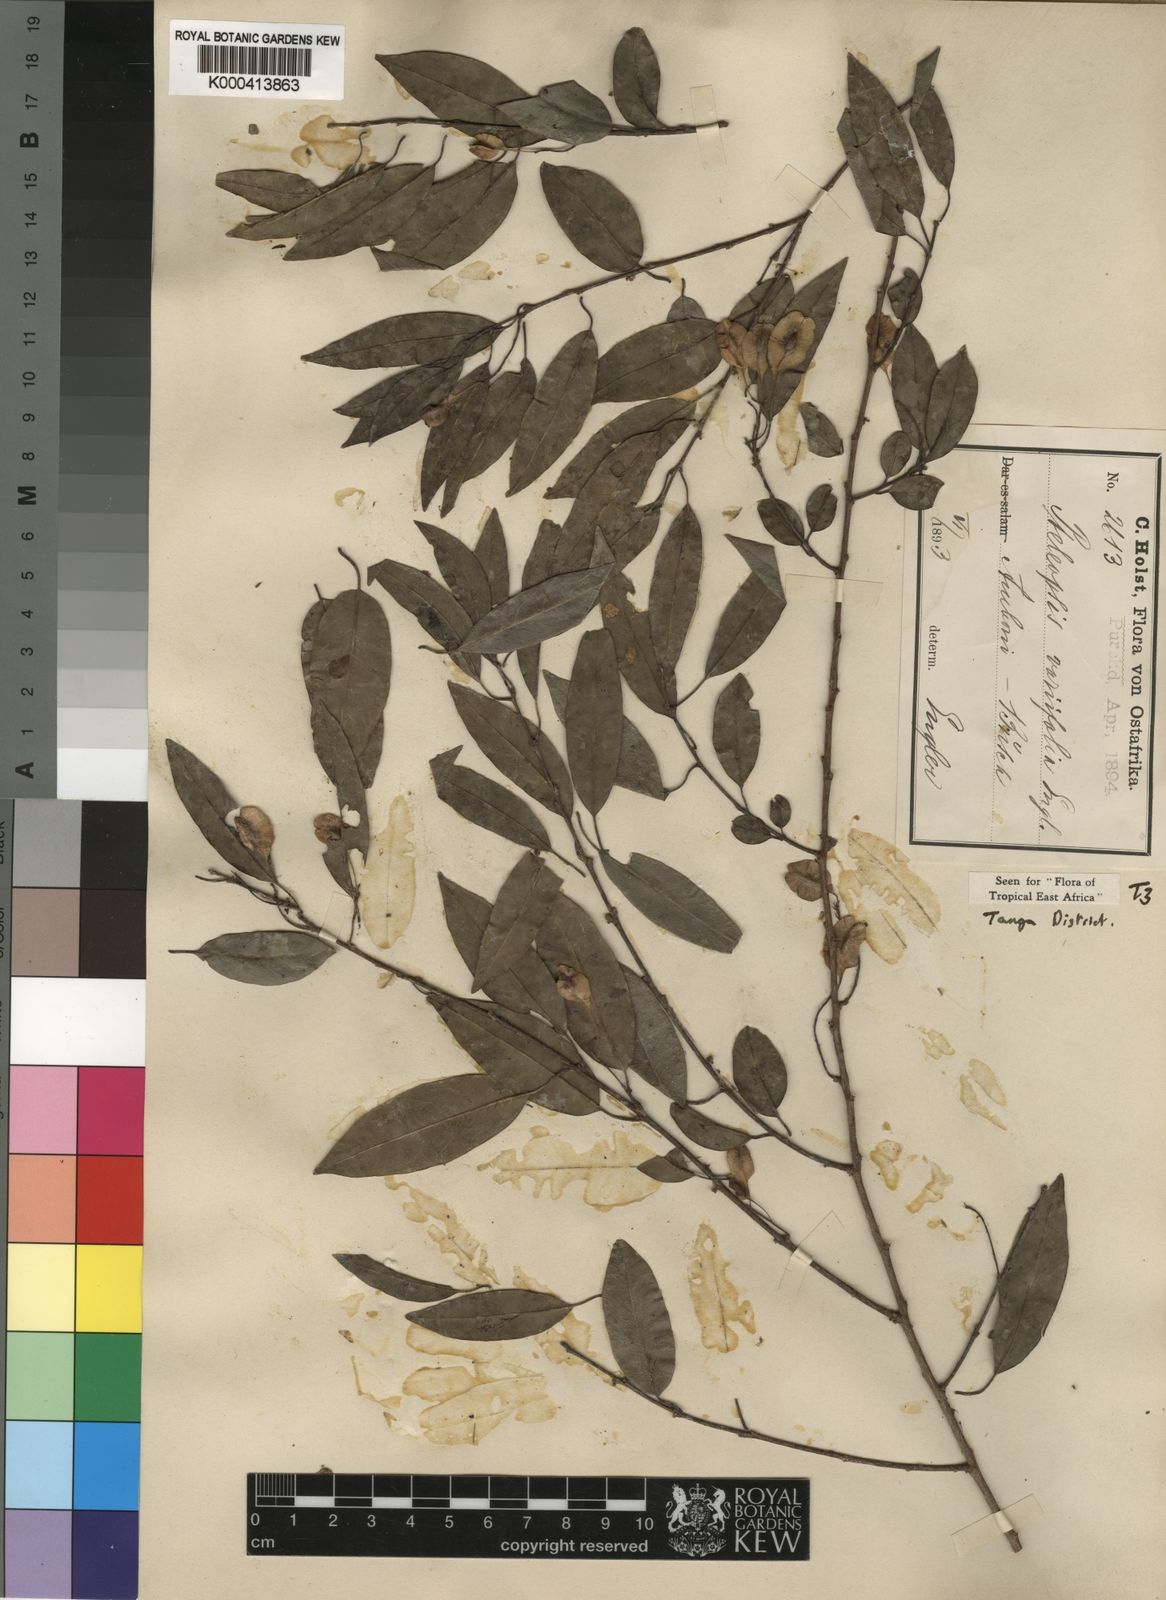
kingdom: Plantae
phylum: Tracheophyta
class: Magnoliopsida
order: Myrtales
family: Combretaceae
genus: Terminalia
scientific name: Terminalia myrtifolia
